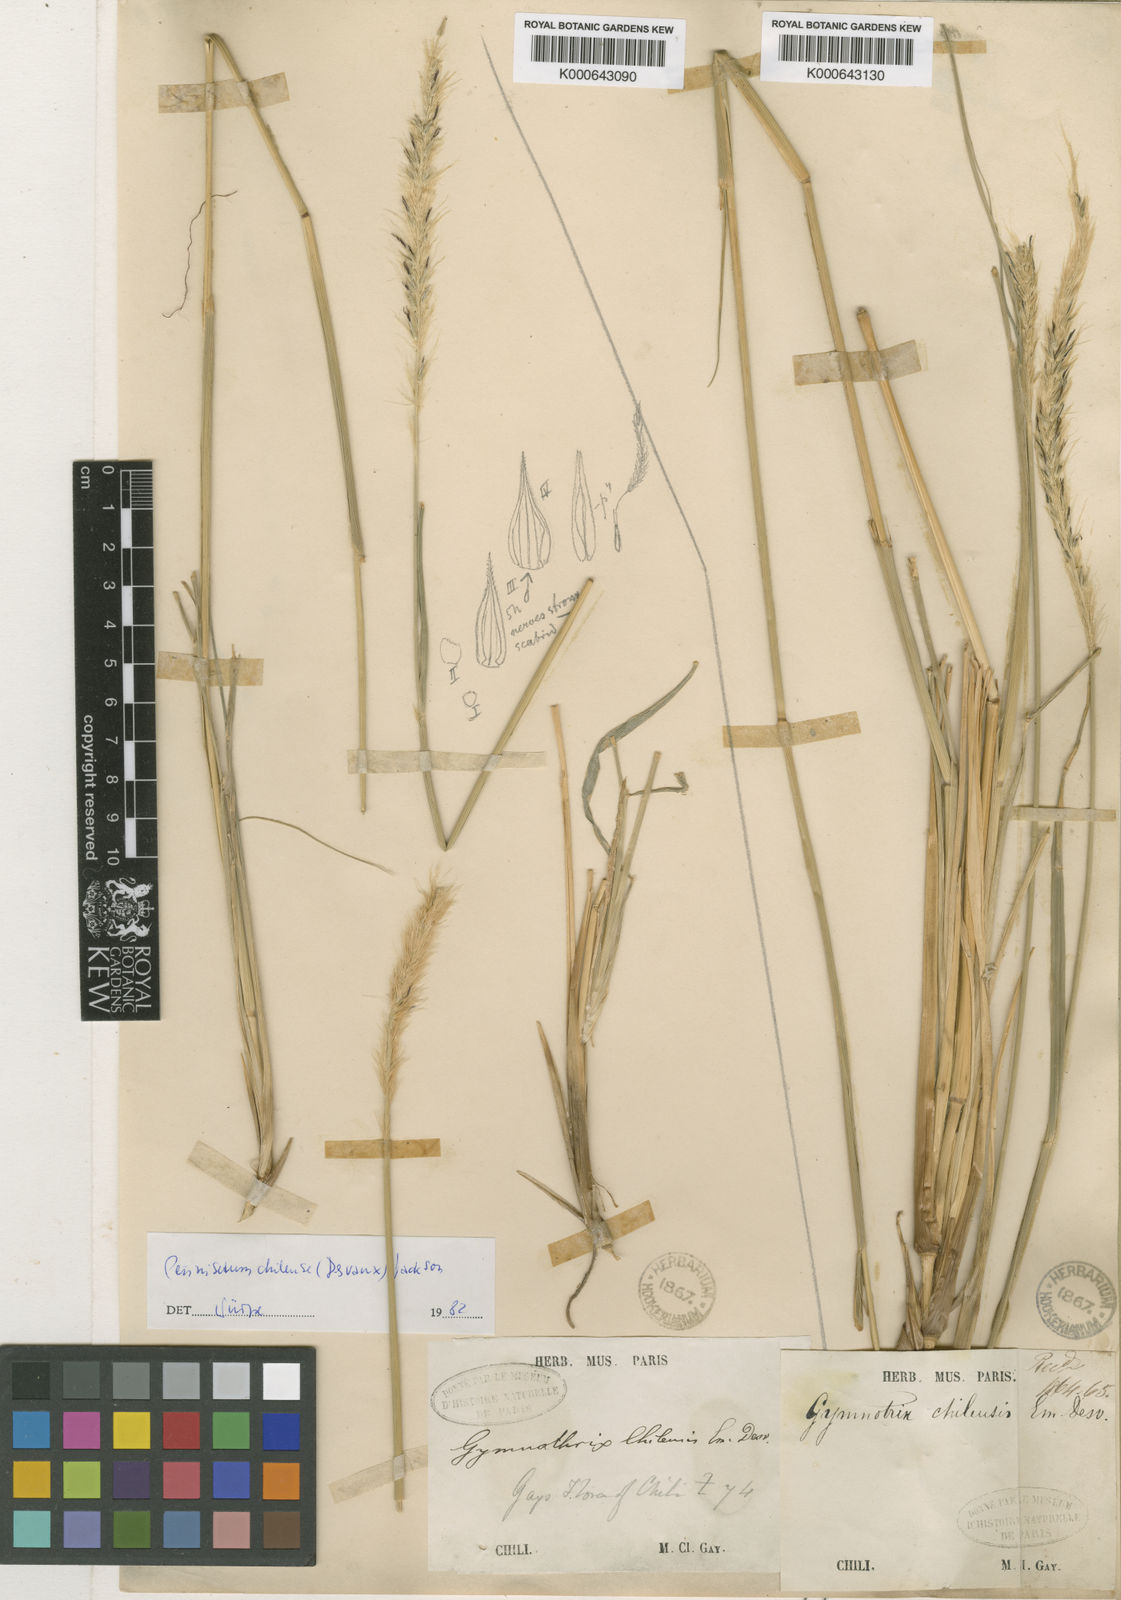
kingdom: Plantae
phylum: Tracheophyta
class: Liliopsida
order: Poales
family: Poaceae
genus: Cenchrus
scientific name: Cenchrus Pennisetum spec
